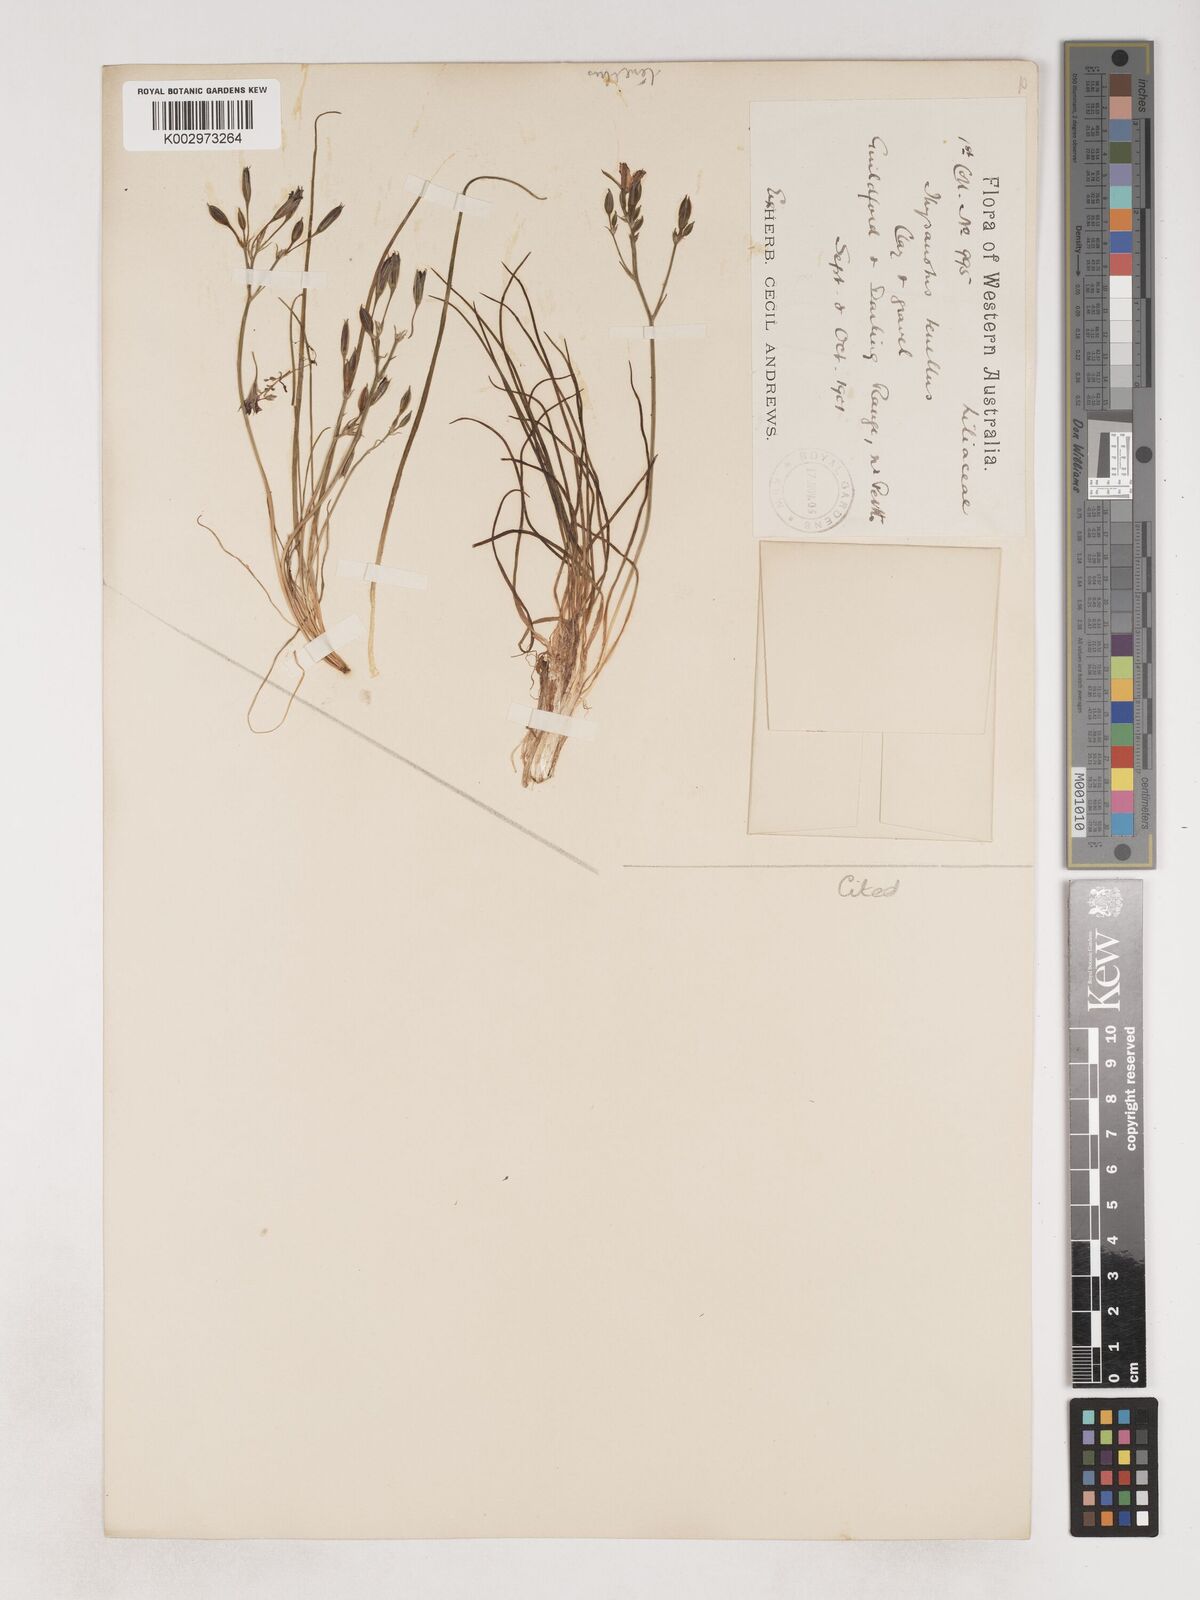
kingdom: Plantae
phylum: Tracheophyta
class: Liliopsida
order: Asparagales
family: Asparagaceae
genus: Thysanotus
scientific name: Thysanotus tenellus
